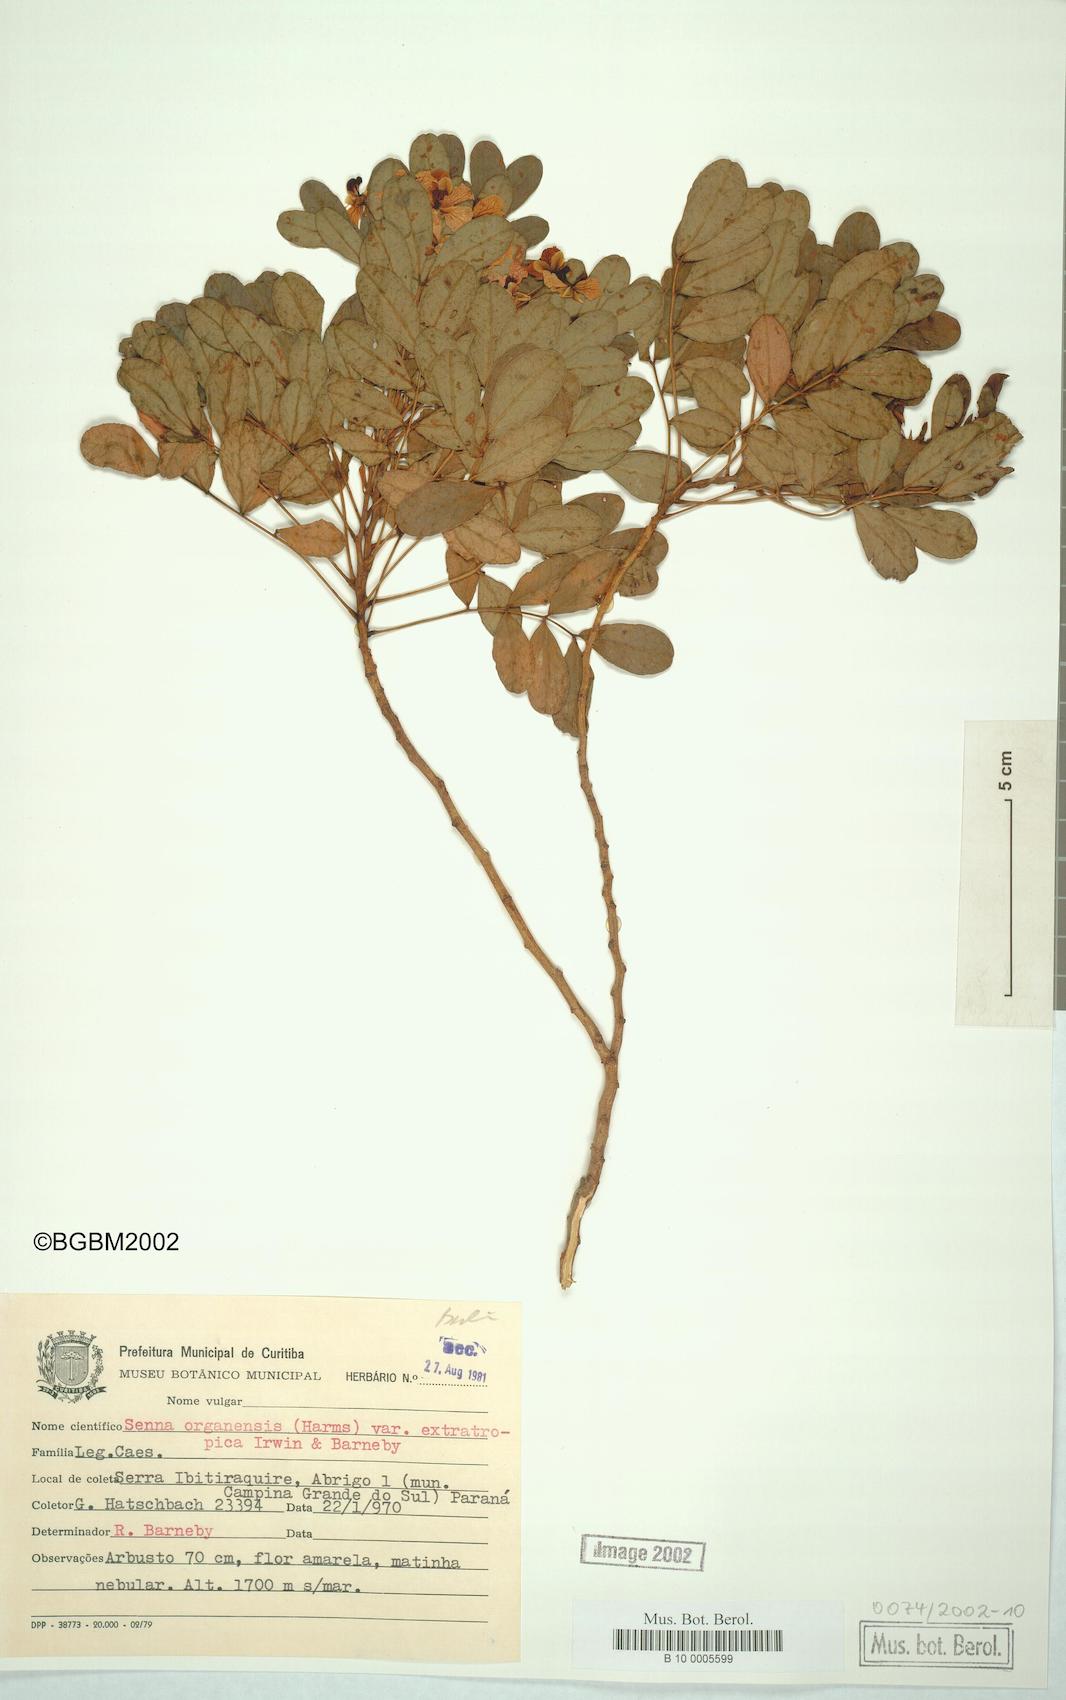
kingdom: Plantae
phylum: Tracheophyta
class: Magnoliopsida
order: Fabales
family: Fabaceae
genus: Senna
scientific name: Senna organensis
